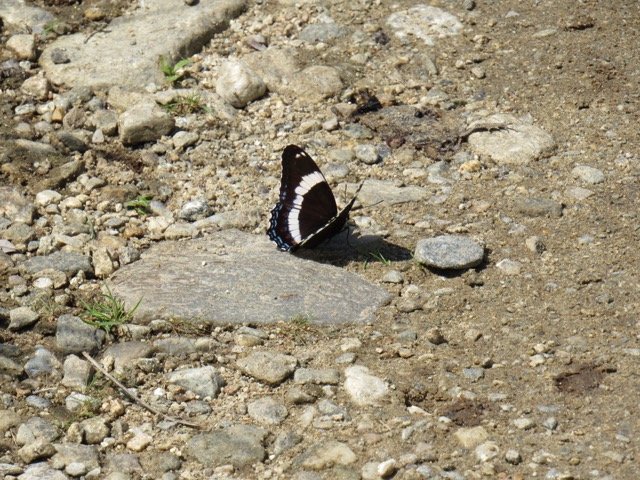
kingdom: Animalia
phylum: Arthropoda
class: Insecta
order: Lepidoptera
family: Nymphalidae
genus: Limenitis
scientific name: Limenitis arthemis
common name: Red-spotted Admiral
